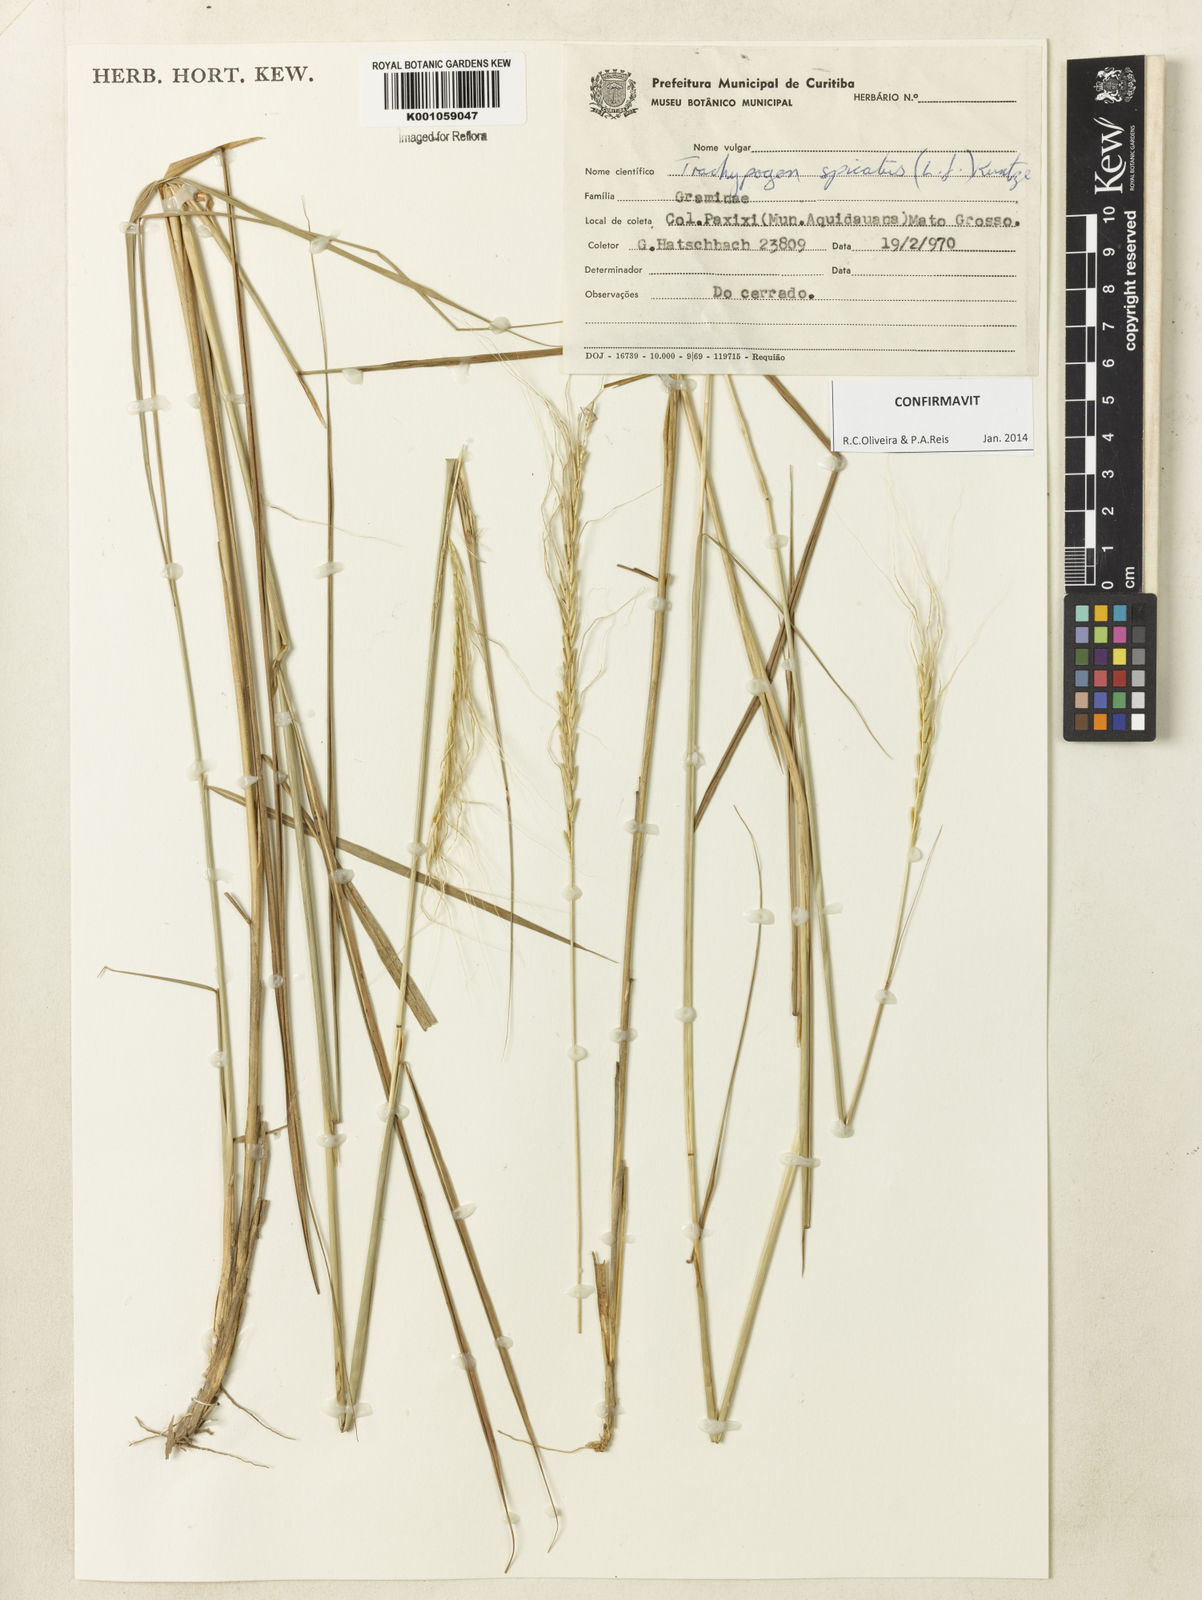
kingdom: Plantae
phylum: Tracheophyta
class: Liliopsida
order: Poales
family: Poaceae
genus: Trachypogon
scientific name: Trachypogon spicatus
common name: Crinkle-awn
